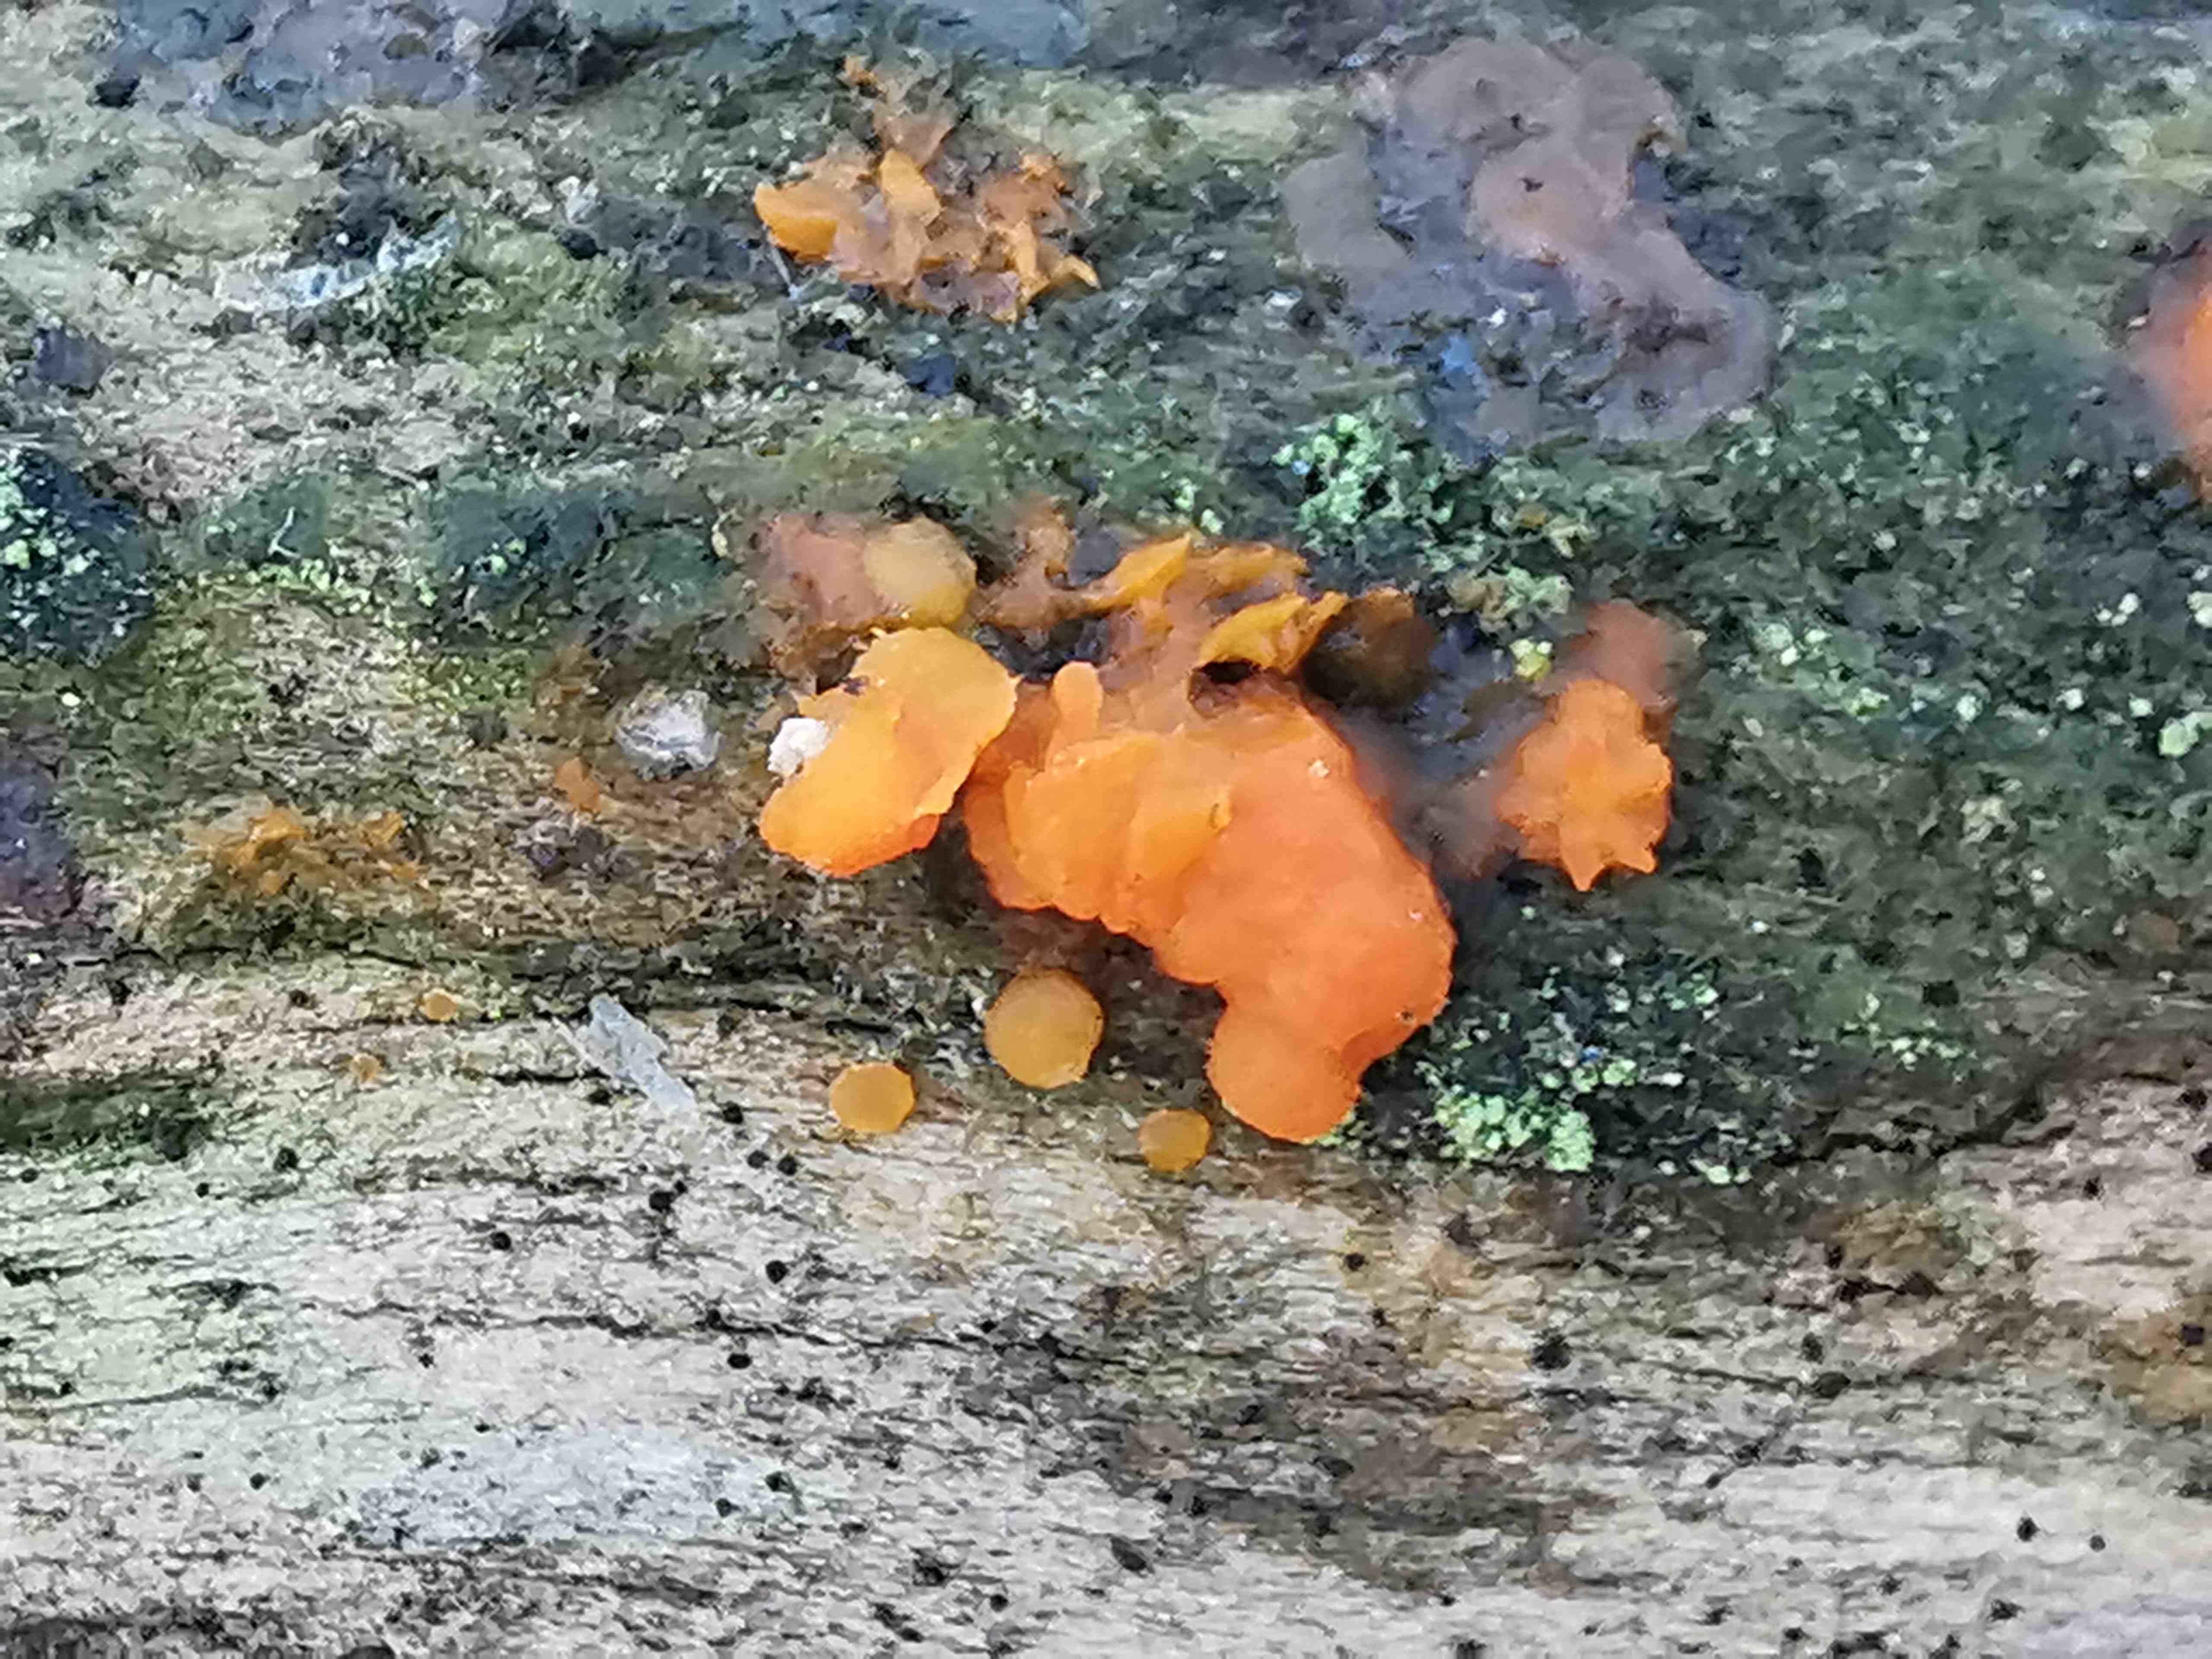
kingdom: Fungi
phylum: Basidiomycota
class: Dacrymycetes
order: Dacrymycetales
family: Dacrymycetaceae
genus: Dacrymyces
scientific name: Dacrymyces stillatus
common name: almindelig tåresvamp
